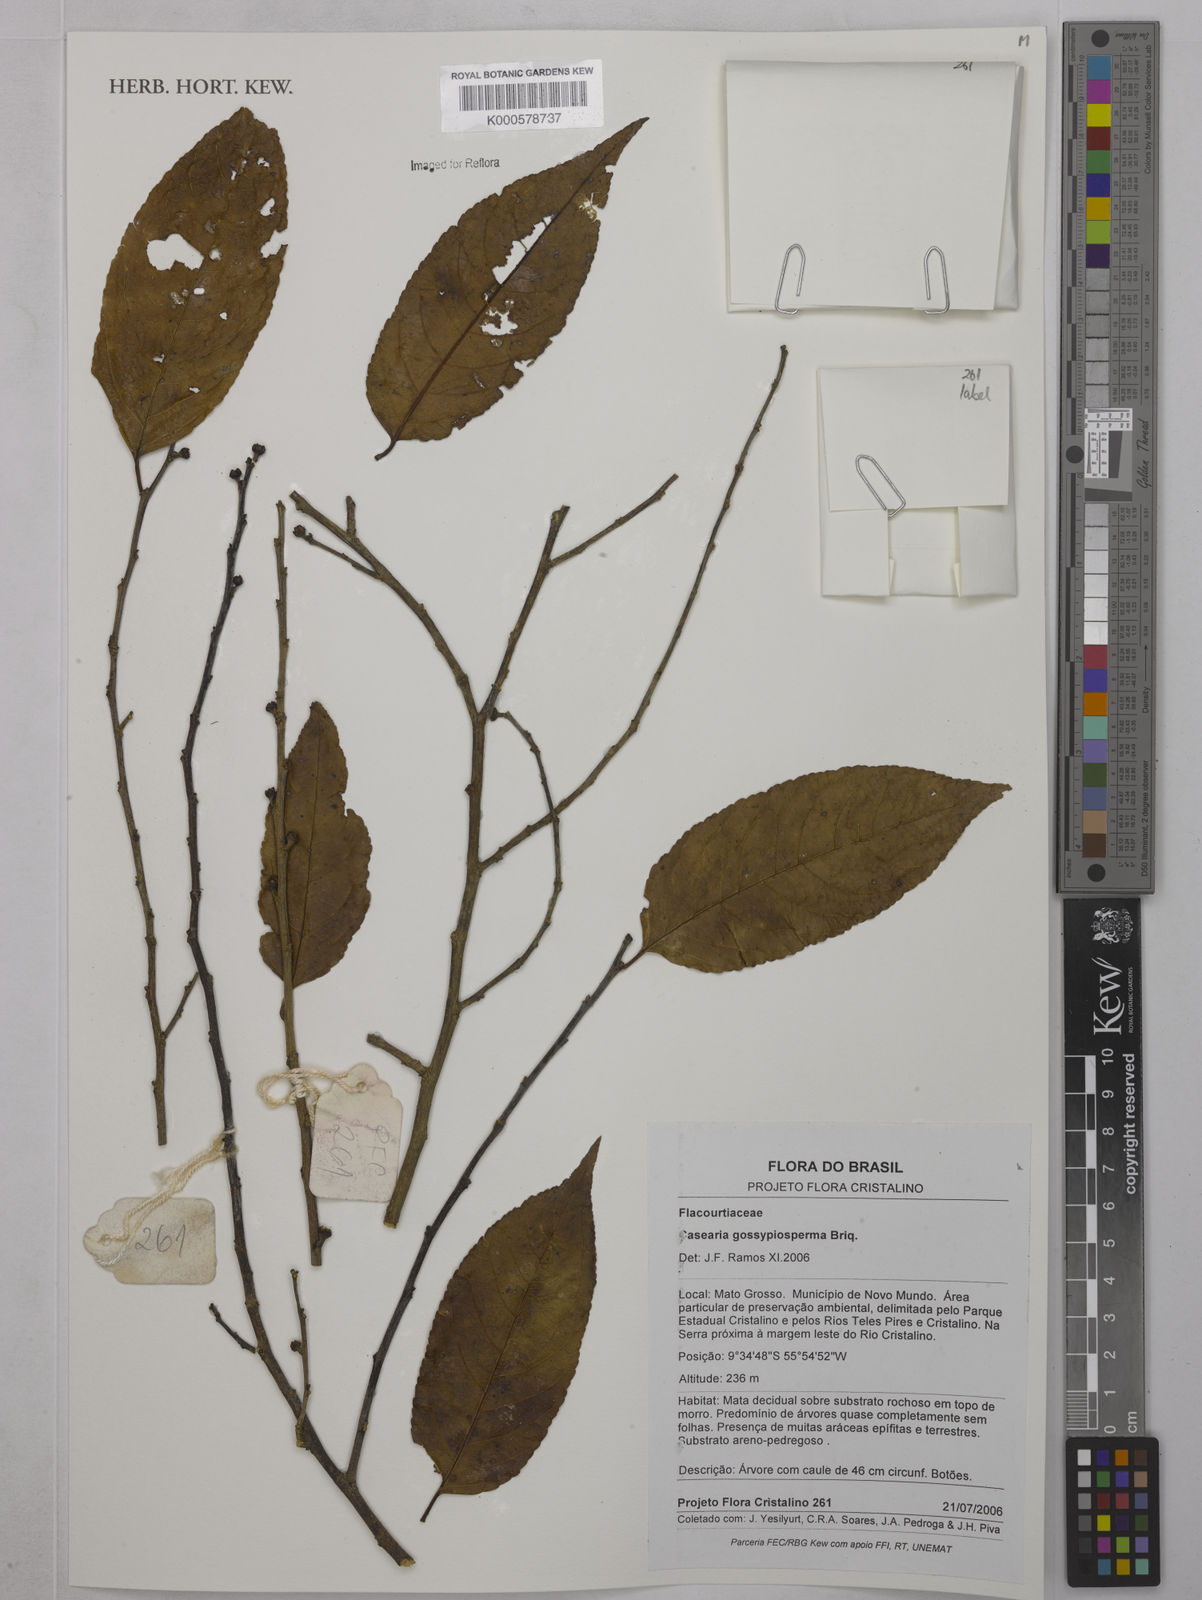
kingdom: Plantae
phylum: Tracheophyta
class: Magnoliopsida
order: Malpighiales
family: Salicaceae
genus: Casearia
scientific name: Casearia gossypiosperma
